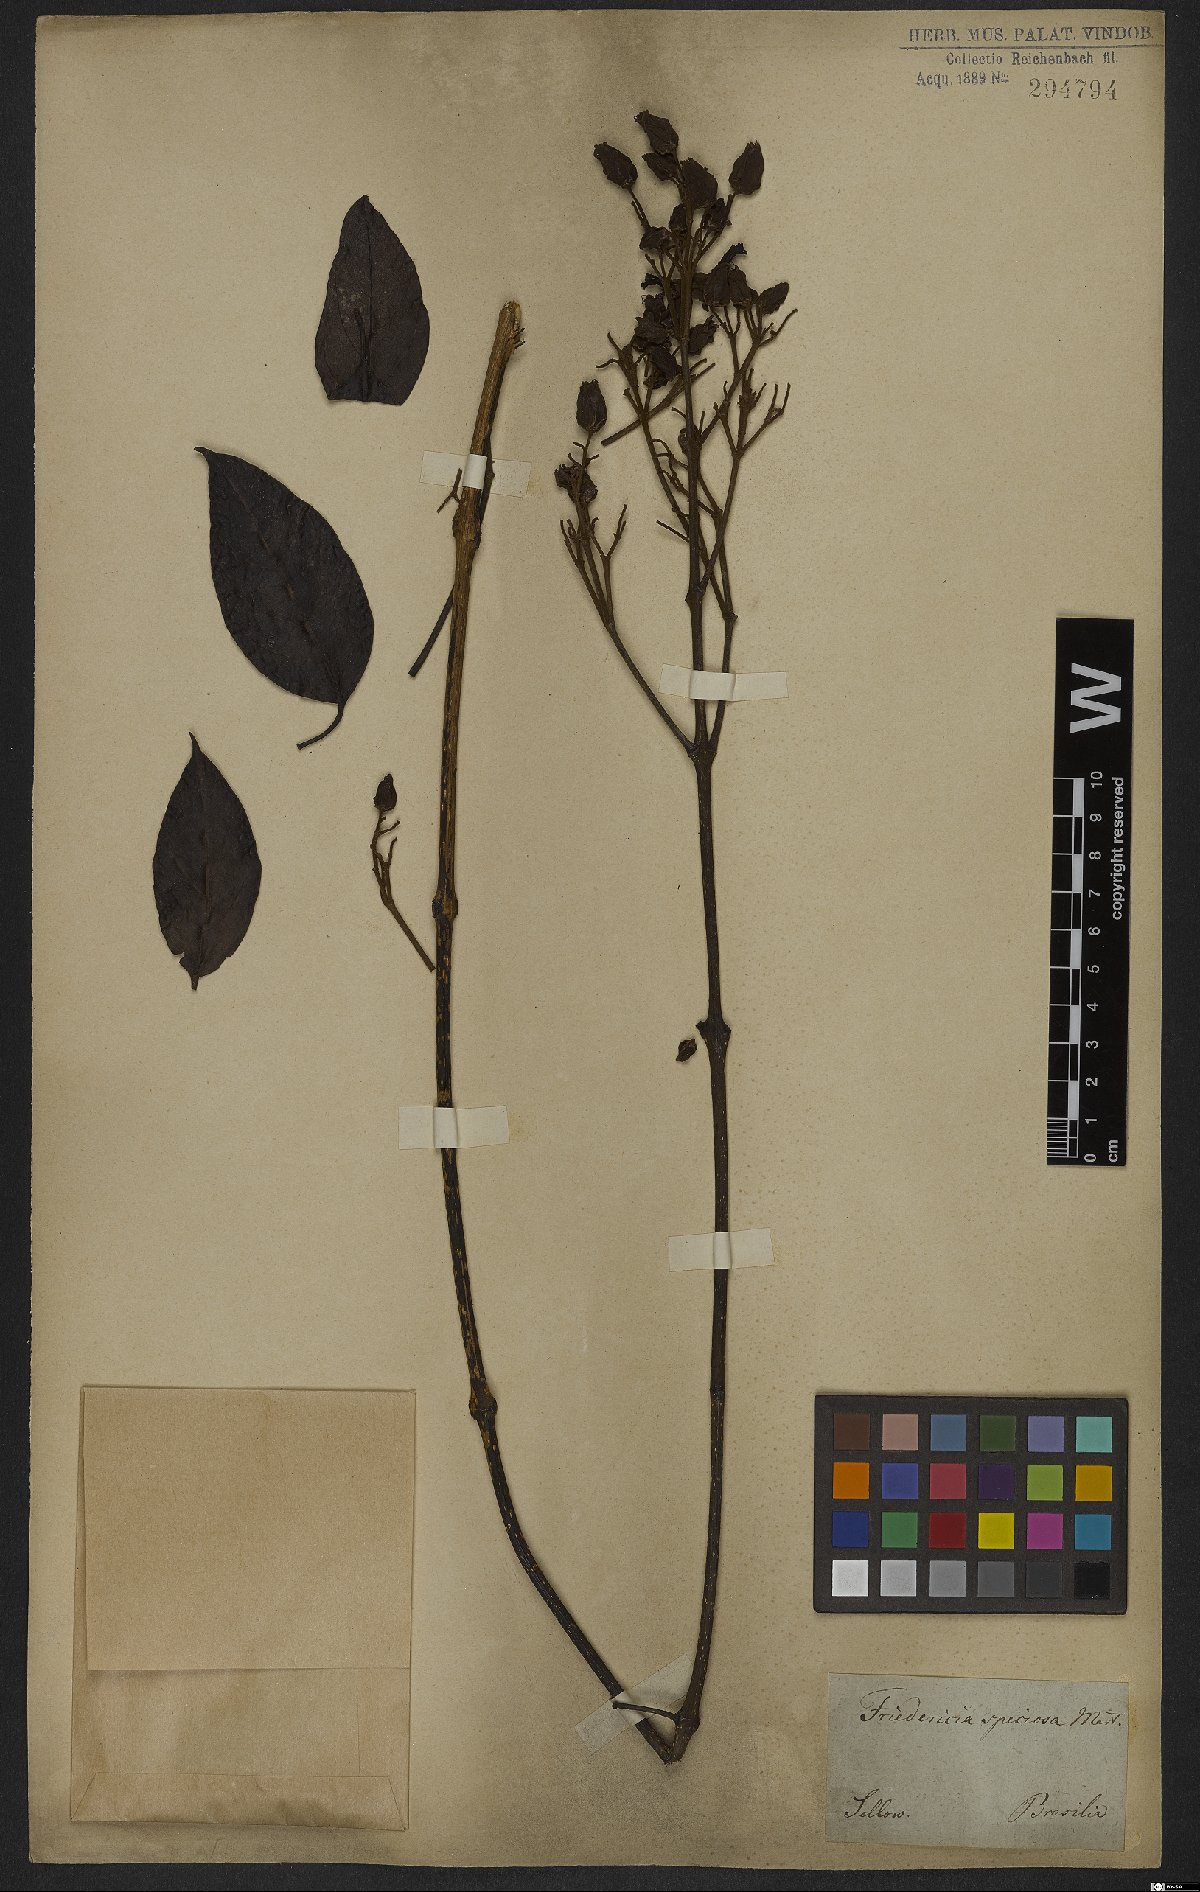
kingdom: Plantae
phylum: Tracheophyta
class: Magnoliopsida
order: Lamiales
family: Bignoniaceae
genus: Fridericia
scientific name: Fridericia speciosa
